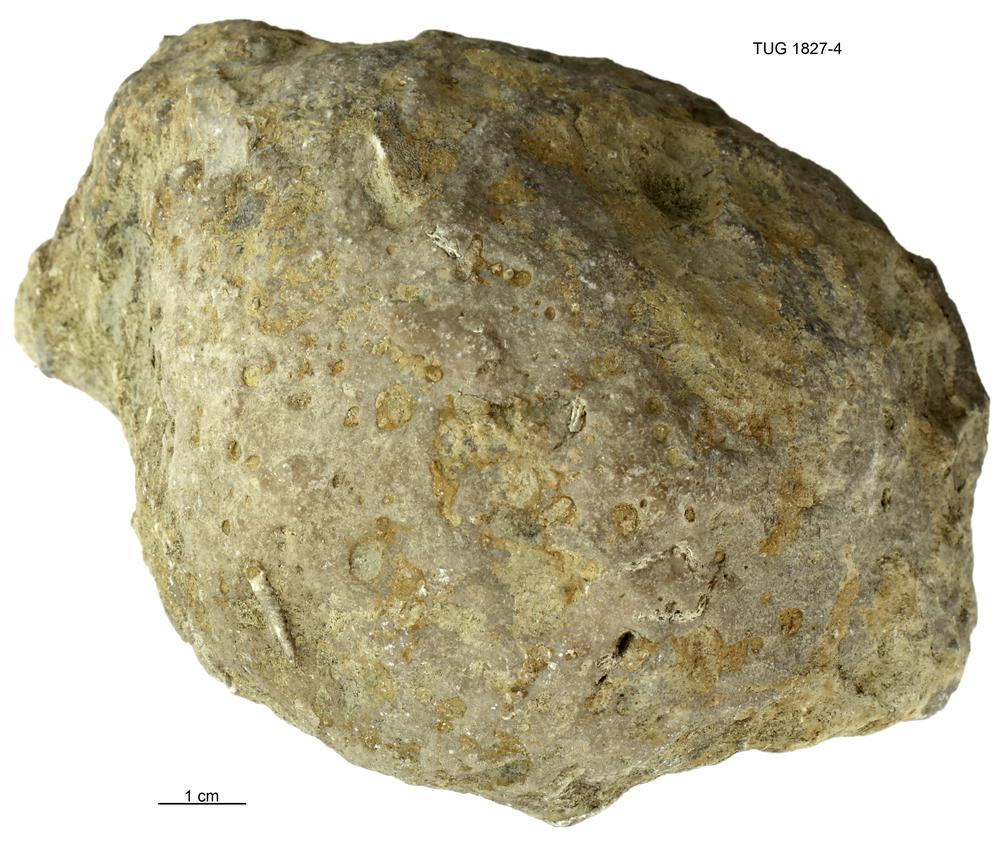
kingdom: Animalia
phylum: Cnidaria
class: Anthozoa
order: Heliolitina
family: Heliolitidae
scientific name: Heliolitidae
